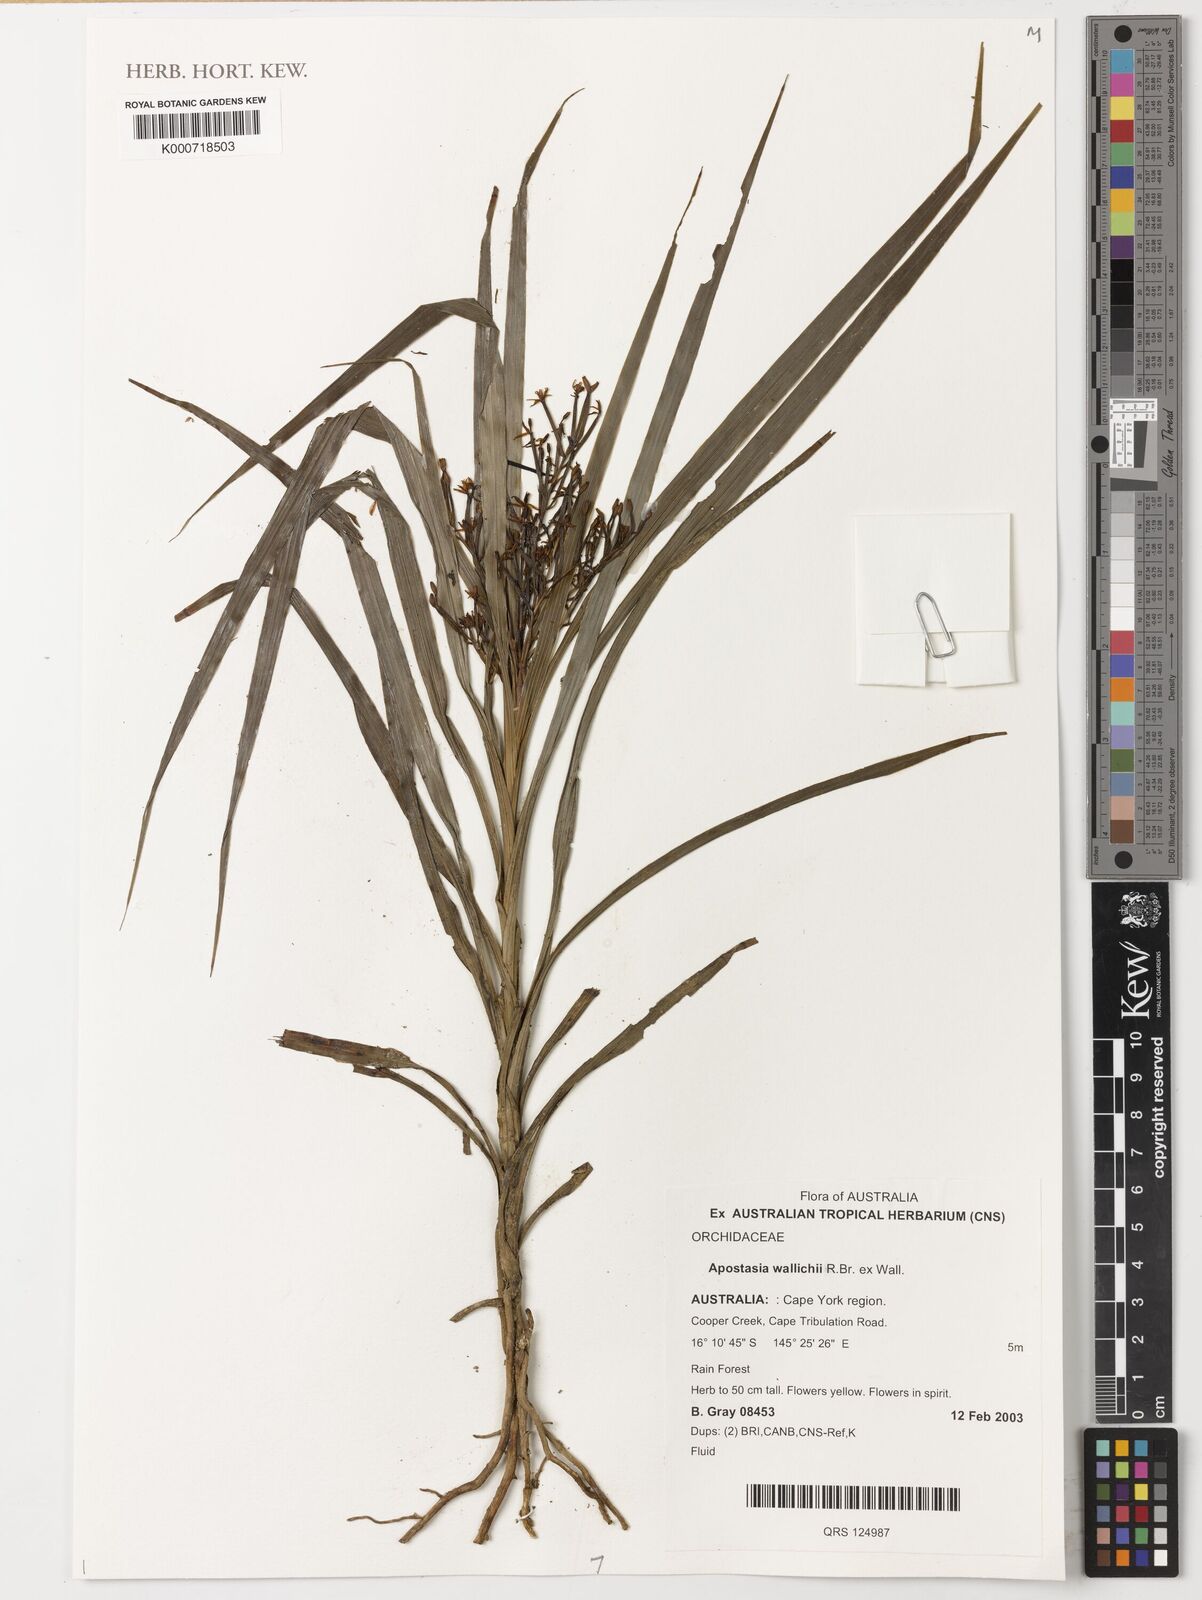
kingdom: Plantae
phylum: Tracheophyta
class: Liliopsida
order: Asparagales
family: Orchidaceae
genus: Apostasia
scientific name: Apostasia wallichii
